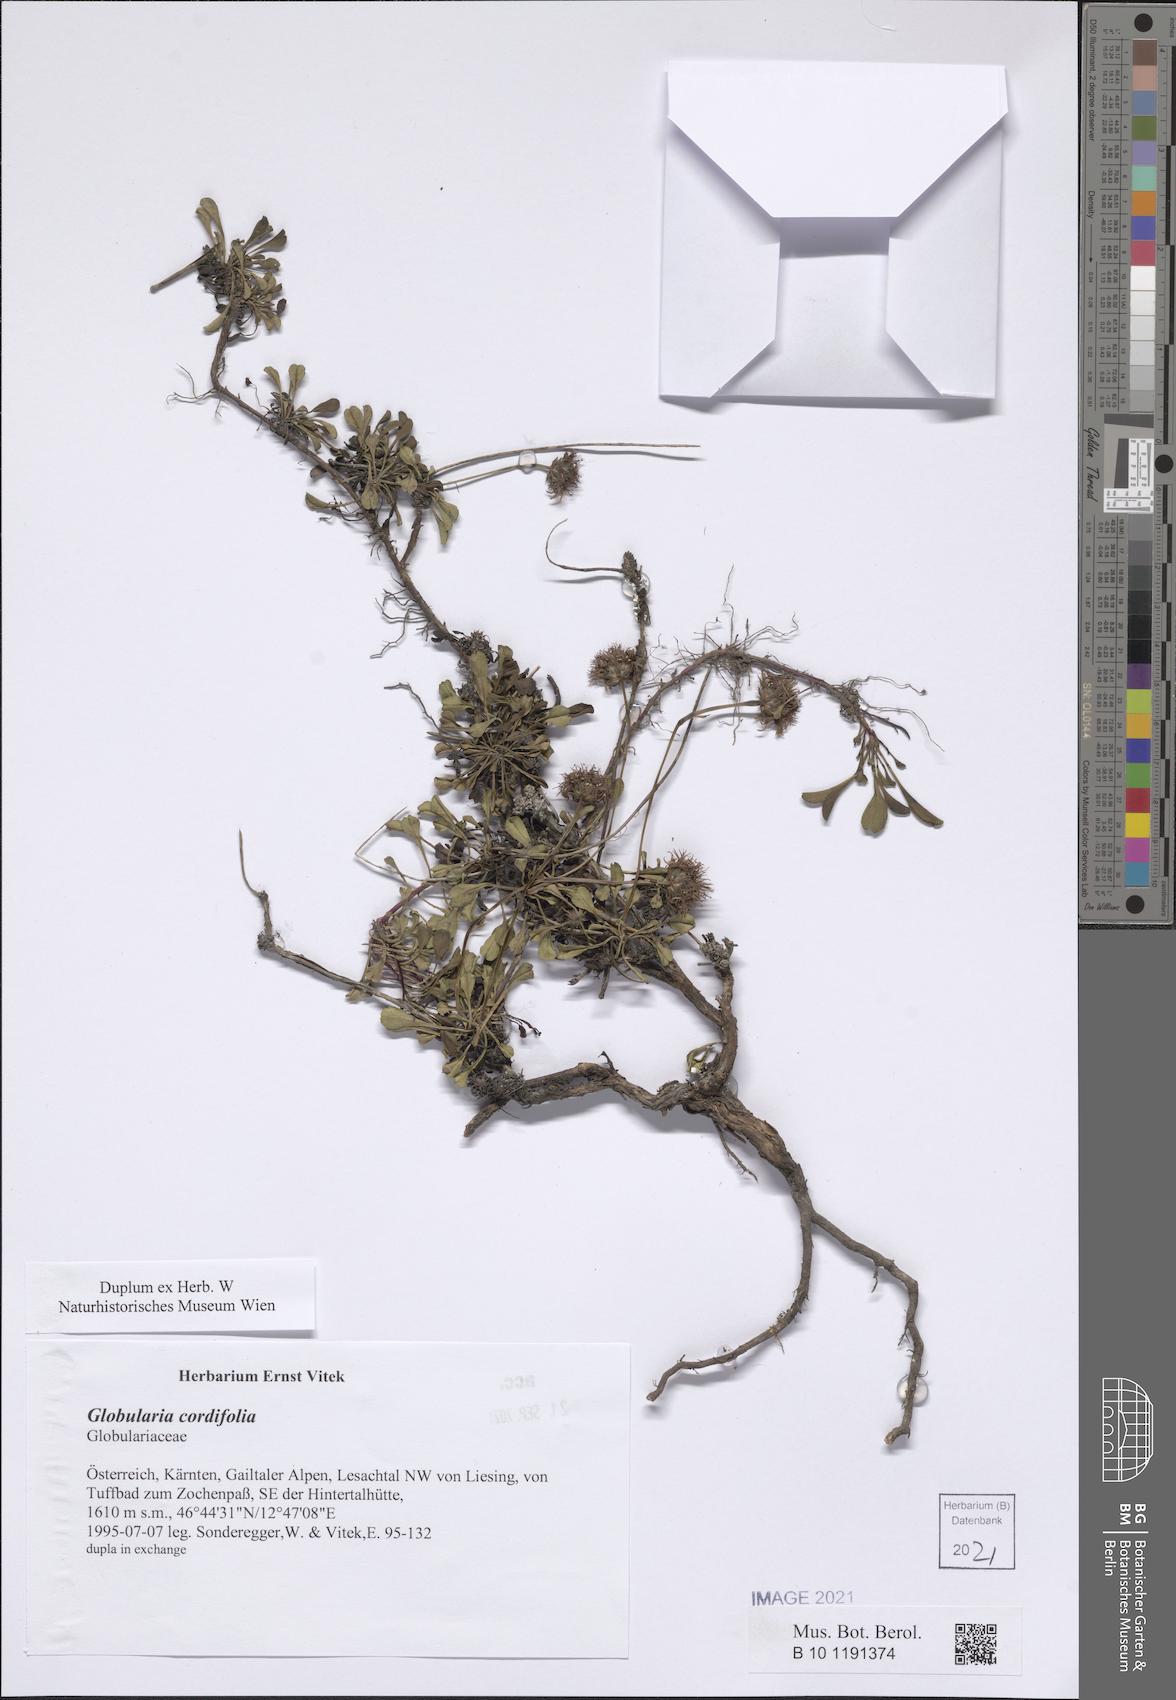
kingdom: Plantae
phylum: Tracheophyta
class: Magnoliopsida
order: Lamiales
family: Plantaginaceae
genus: Globularia
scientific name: Globularia cordifolia
